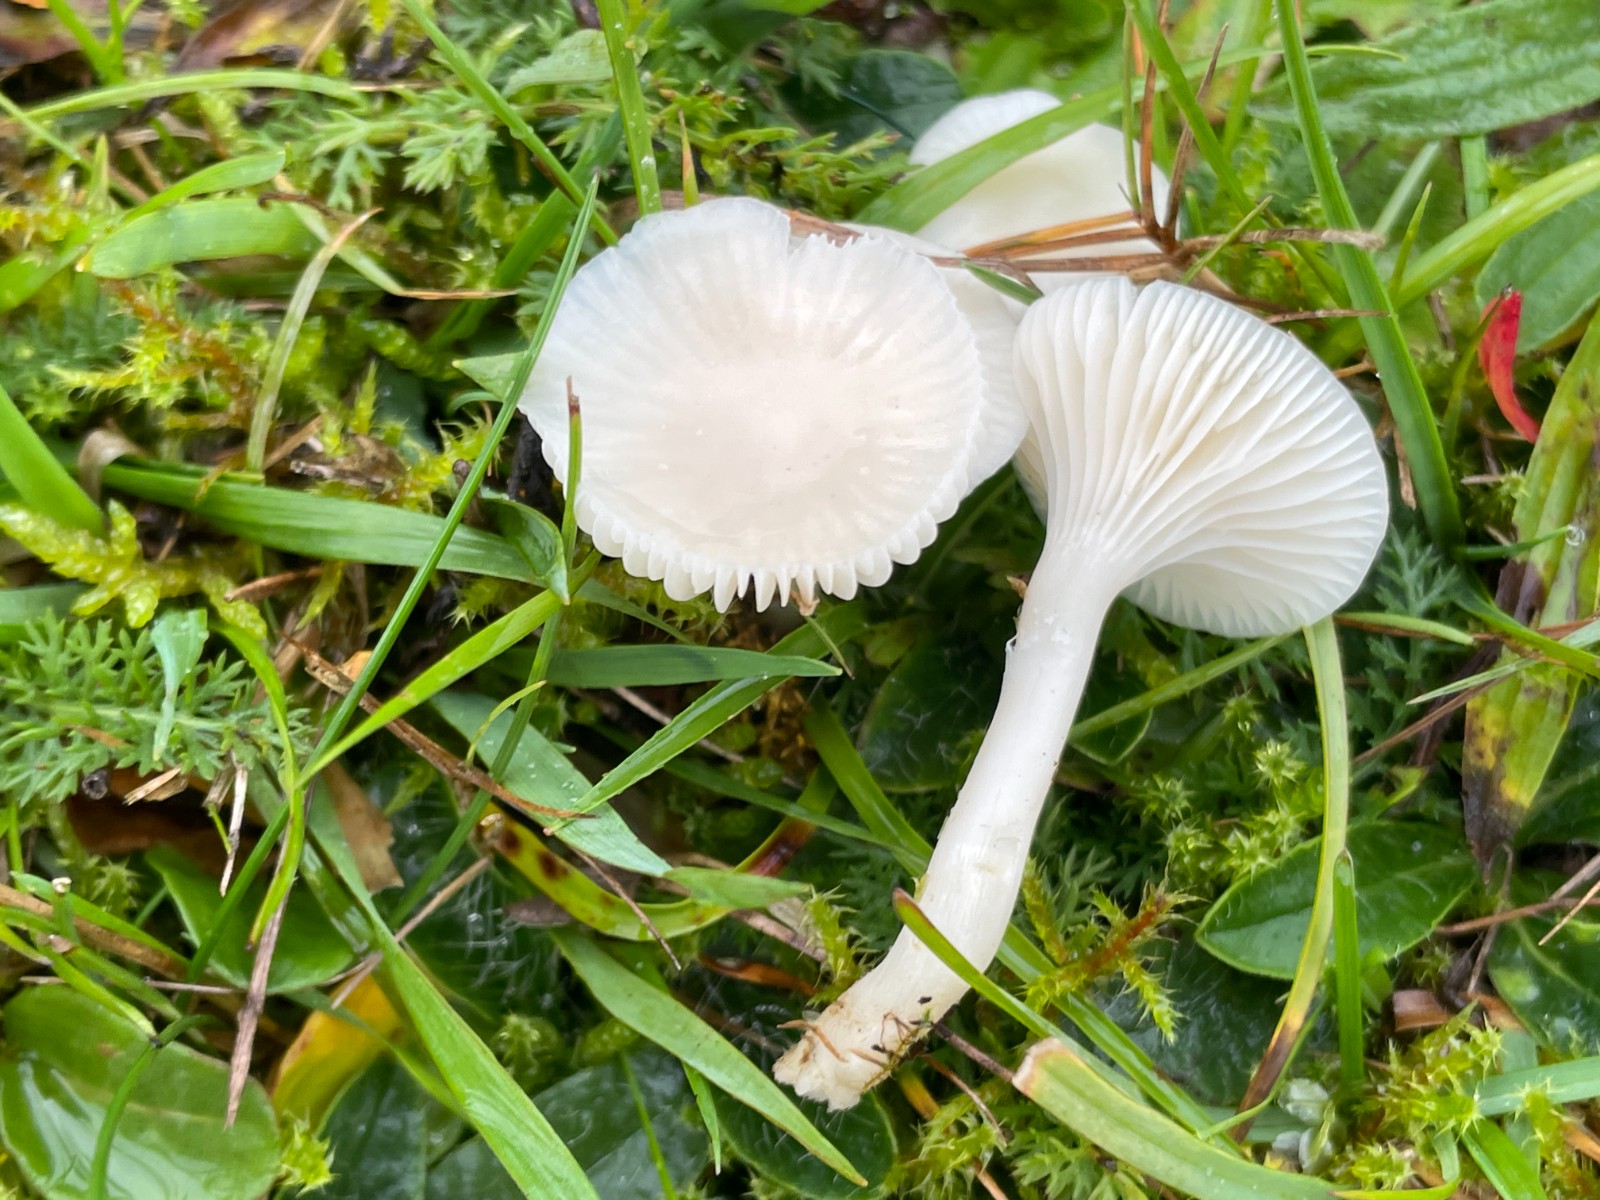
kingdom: Fungi
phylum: Basidiomycota
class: Agaricomycetes
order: Agaricales
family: Hygrophoraceae
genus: Cuphophyllus
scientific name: Cuphophyllus virgineus
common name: snehvid vokshat
